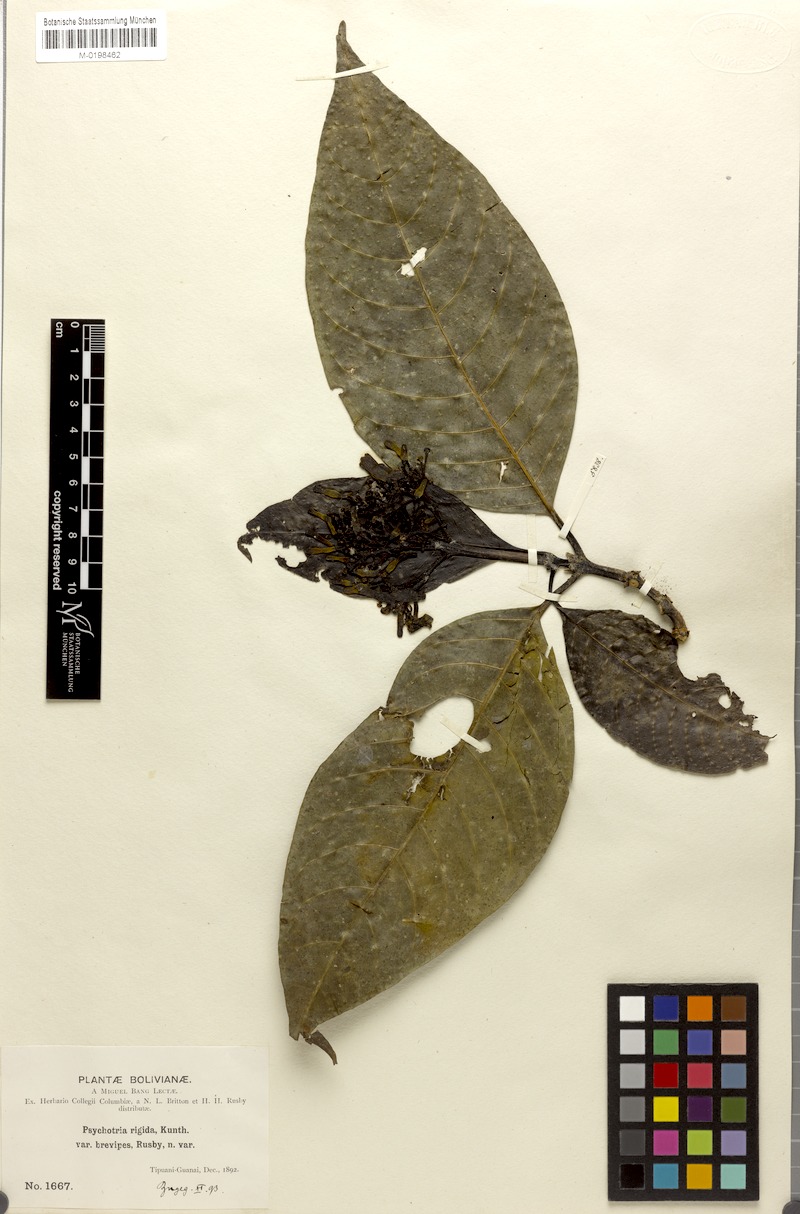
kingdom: Plantae
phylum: Tracheophyta
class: Magnoliopsida
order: Gentianales
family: Rubiaceae
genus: Palicourea
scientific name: Palicourea grandiflora
